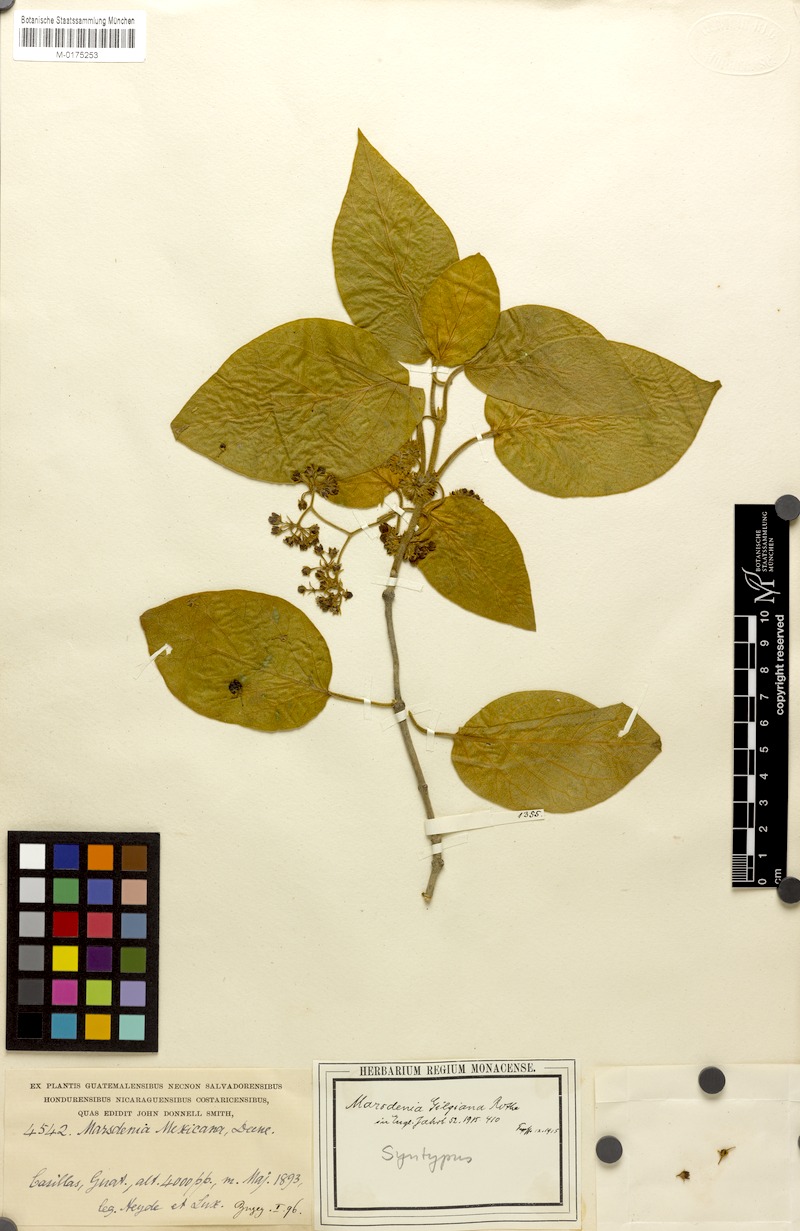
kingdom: Plantae
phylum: Tracheophyta
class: Magnoliopsida
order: Gentianales
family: Apocynaceae
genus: Ruehssia
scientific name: Ruehssia bourgaeana
